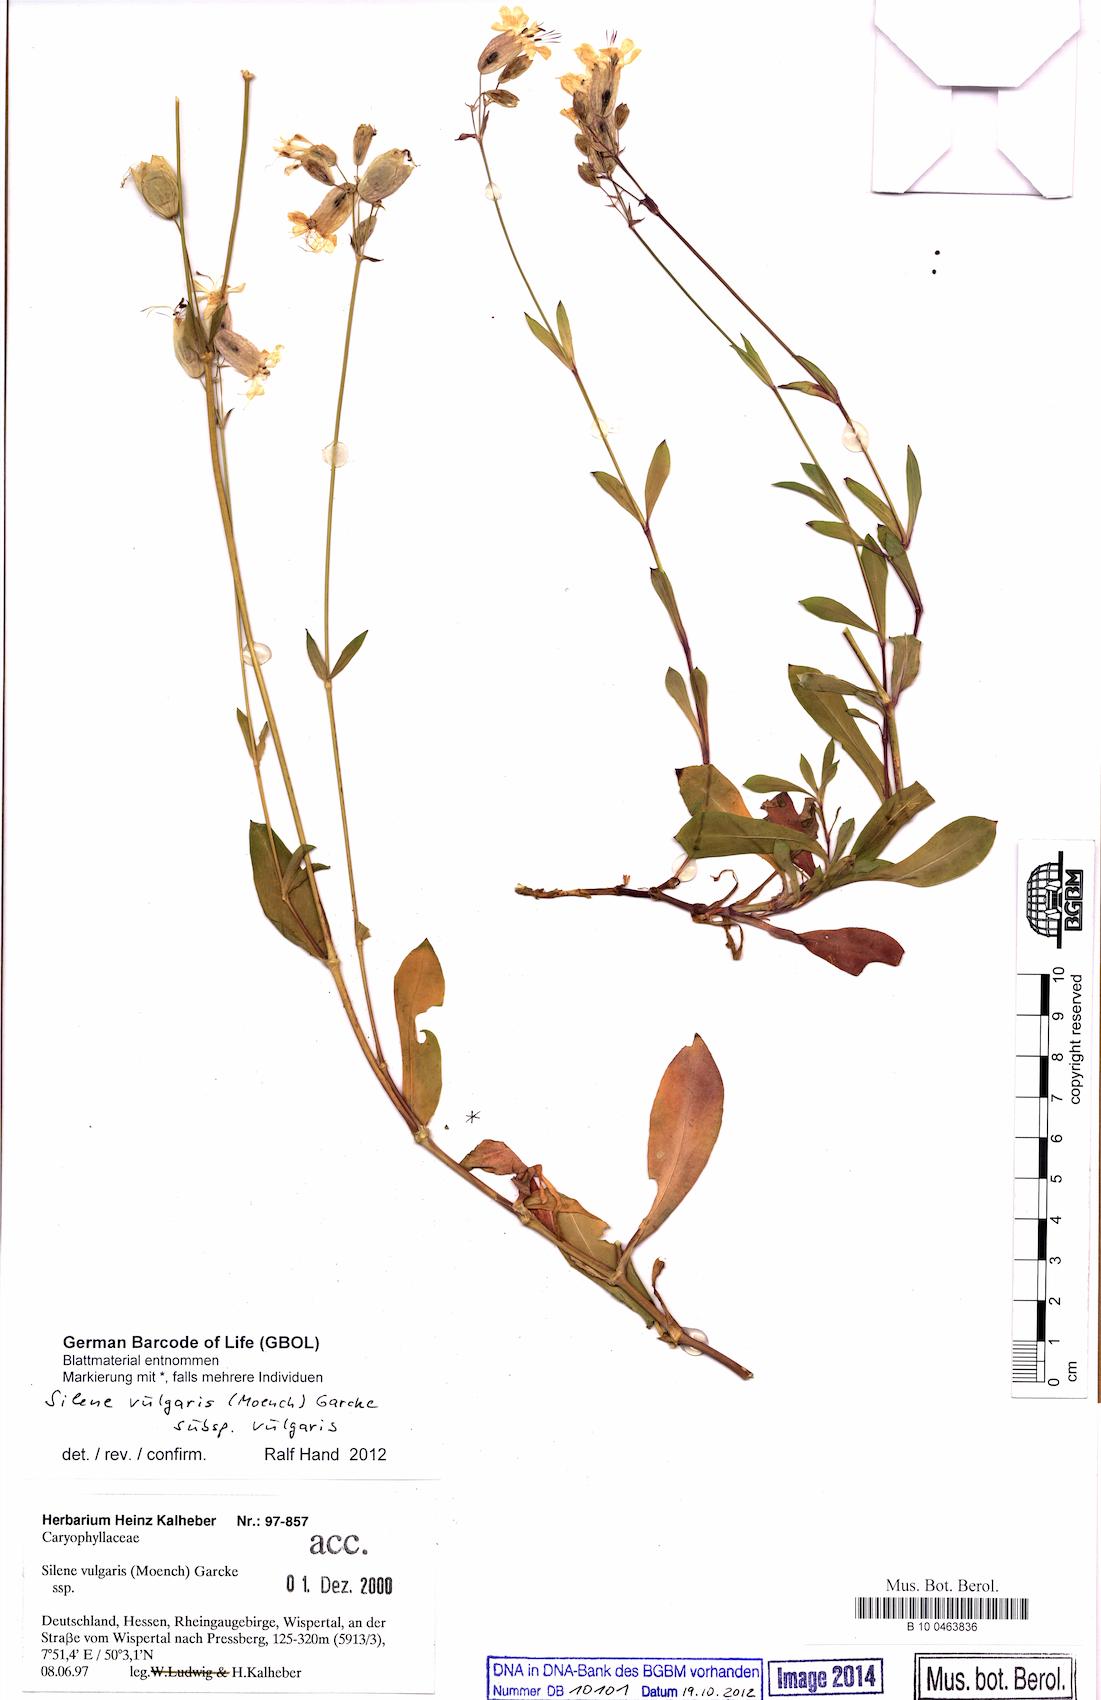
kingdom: Plantae
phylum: Tracheophyta
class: Magnoliopsida
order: Caryophyllales
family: Caryophyllaceae
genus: Silene
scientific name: Silene vulgaris
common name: Bladder campion
